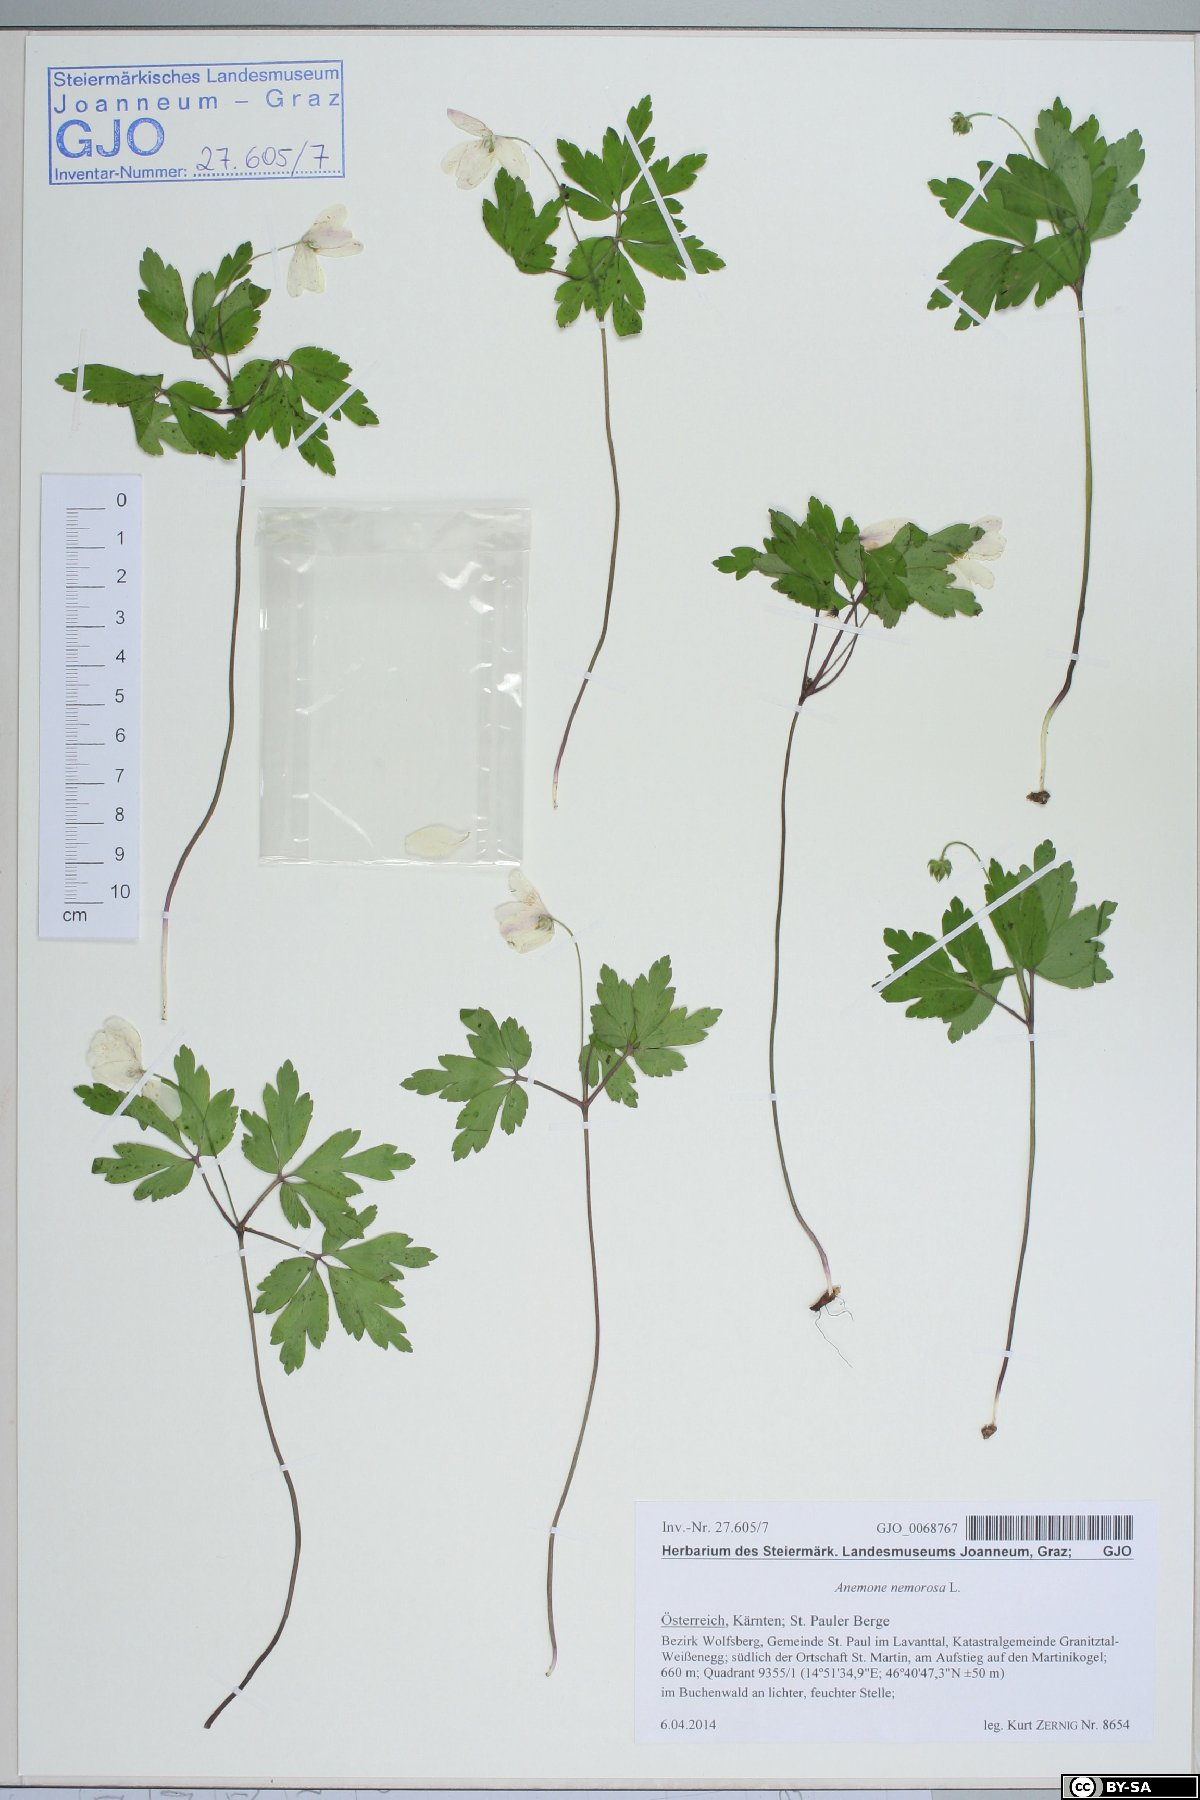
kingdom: Plantae
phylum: Tracheophyta
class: Magnoliopsida
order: Ranunculales
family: Ranunculaceae
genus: Anemone
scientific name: Anemone nemorosa
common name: Wood anemone
